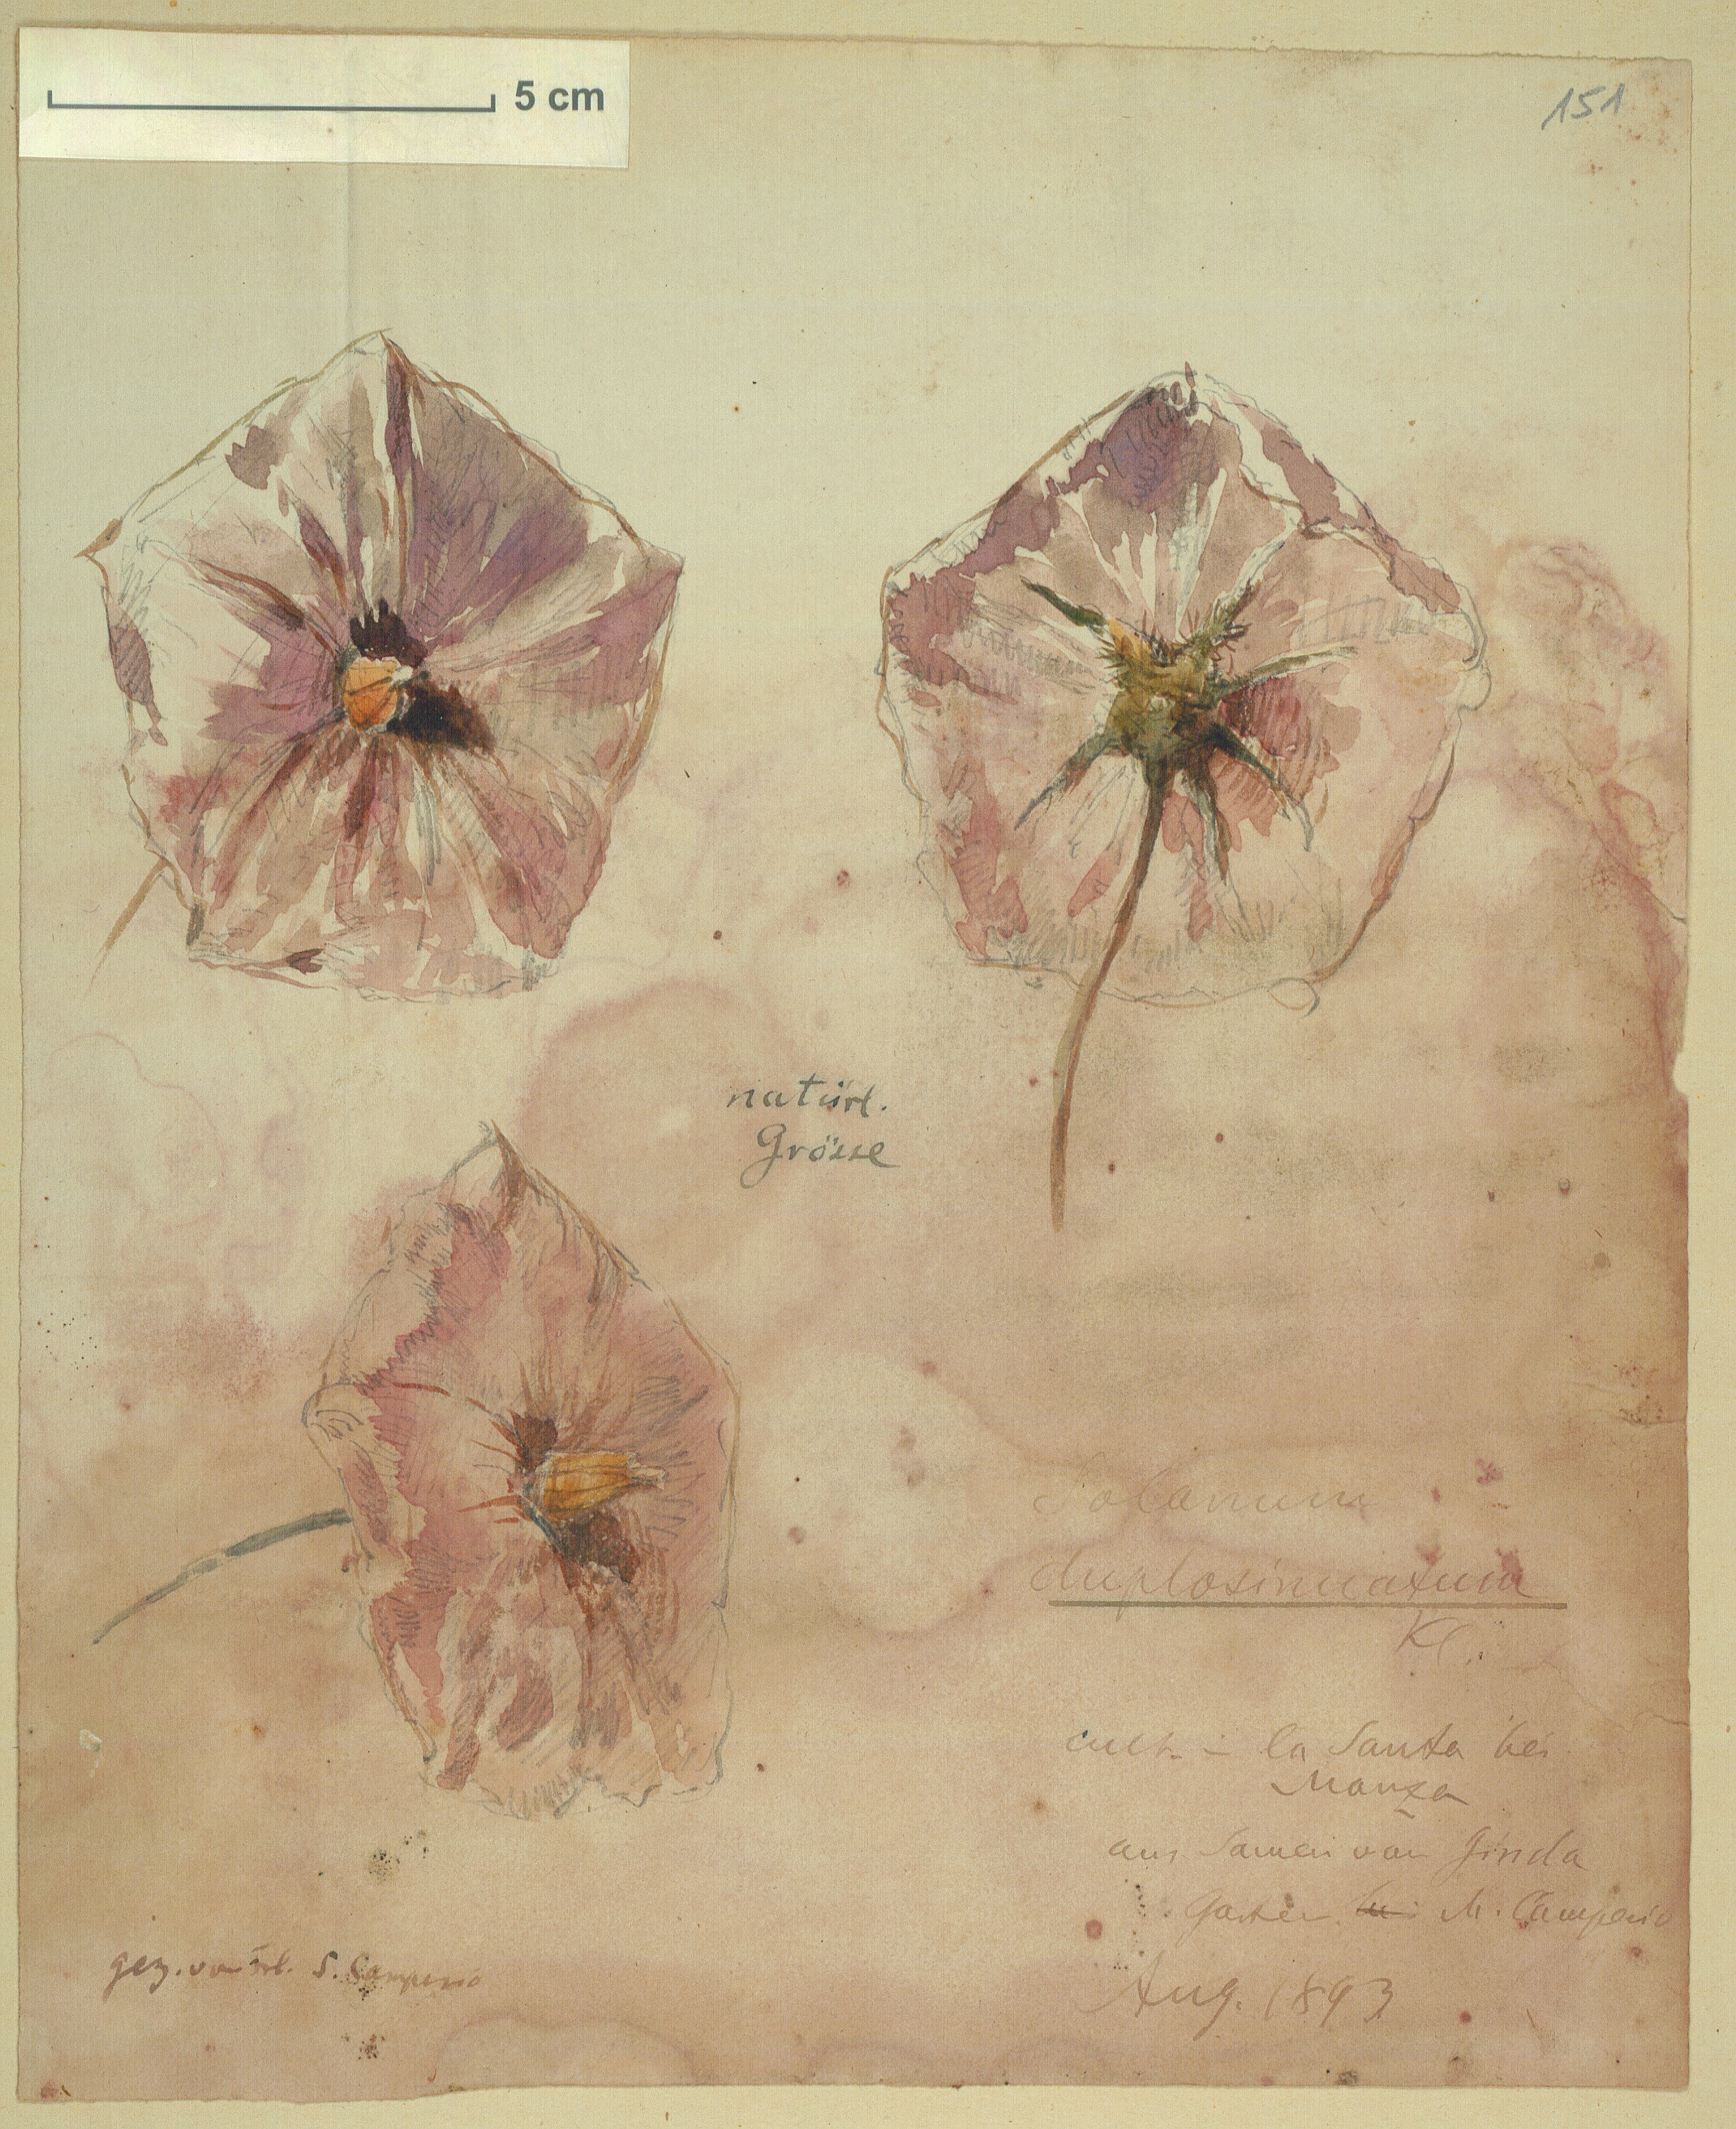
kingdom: Plantae
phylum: Tracheophyta
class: Magnoliopsida
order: Solanales
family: Solanaceae
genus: Solanum
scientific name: Solanum
